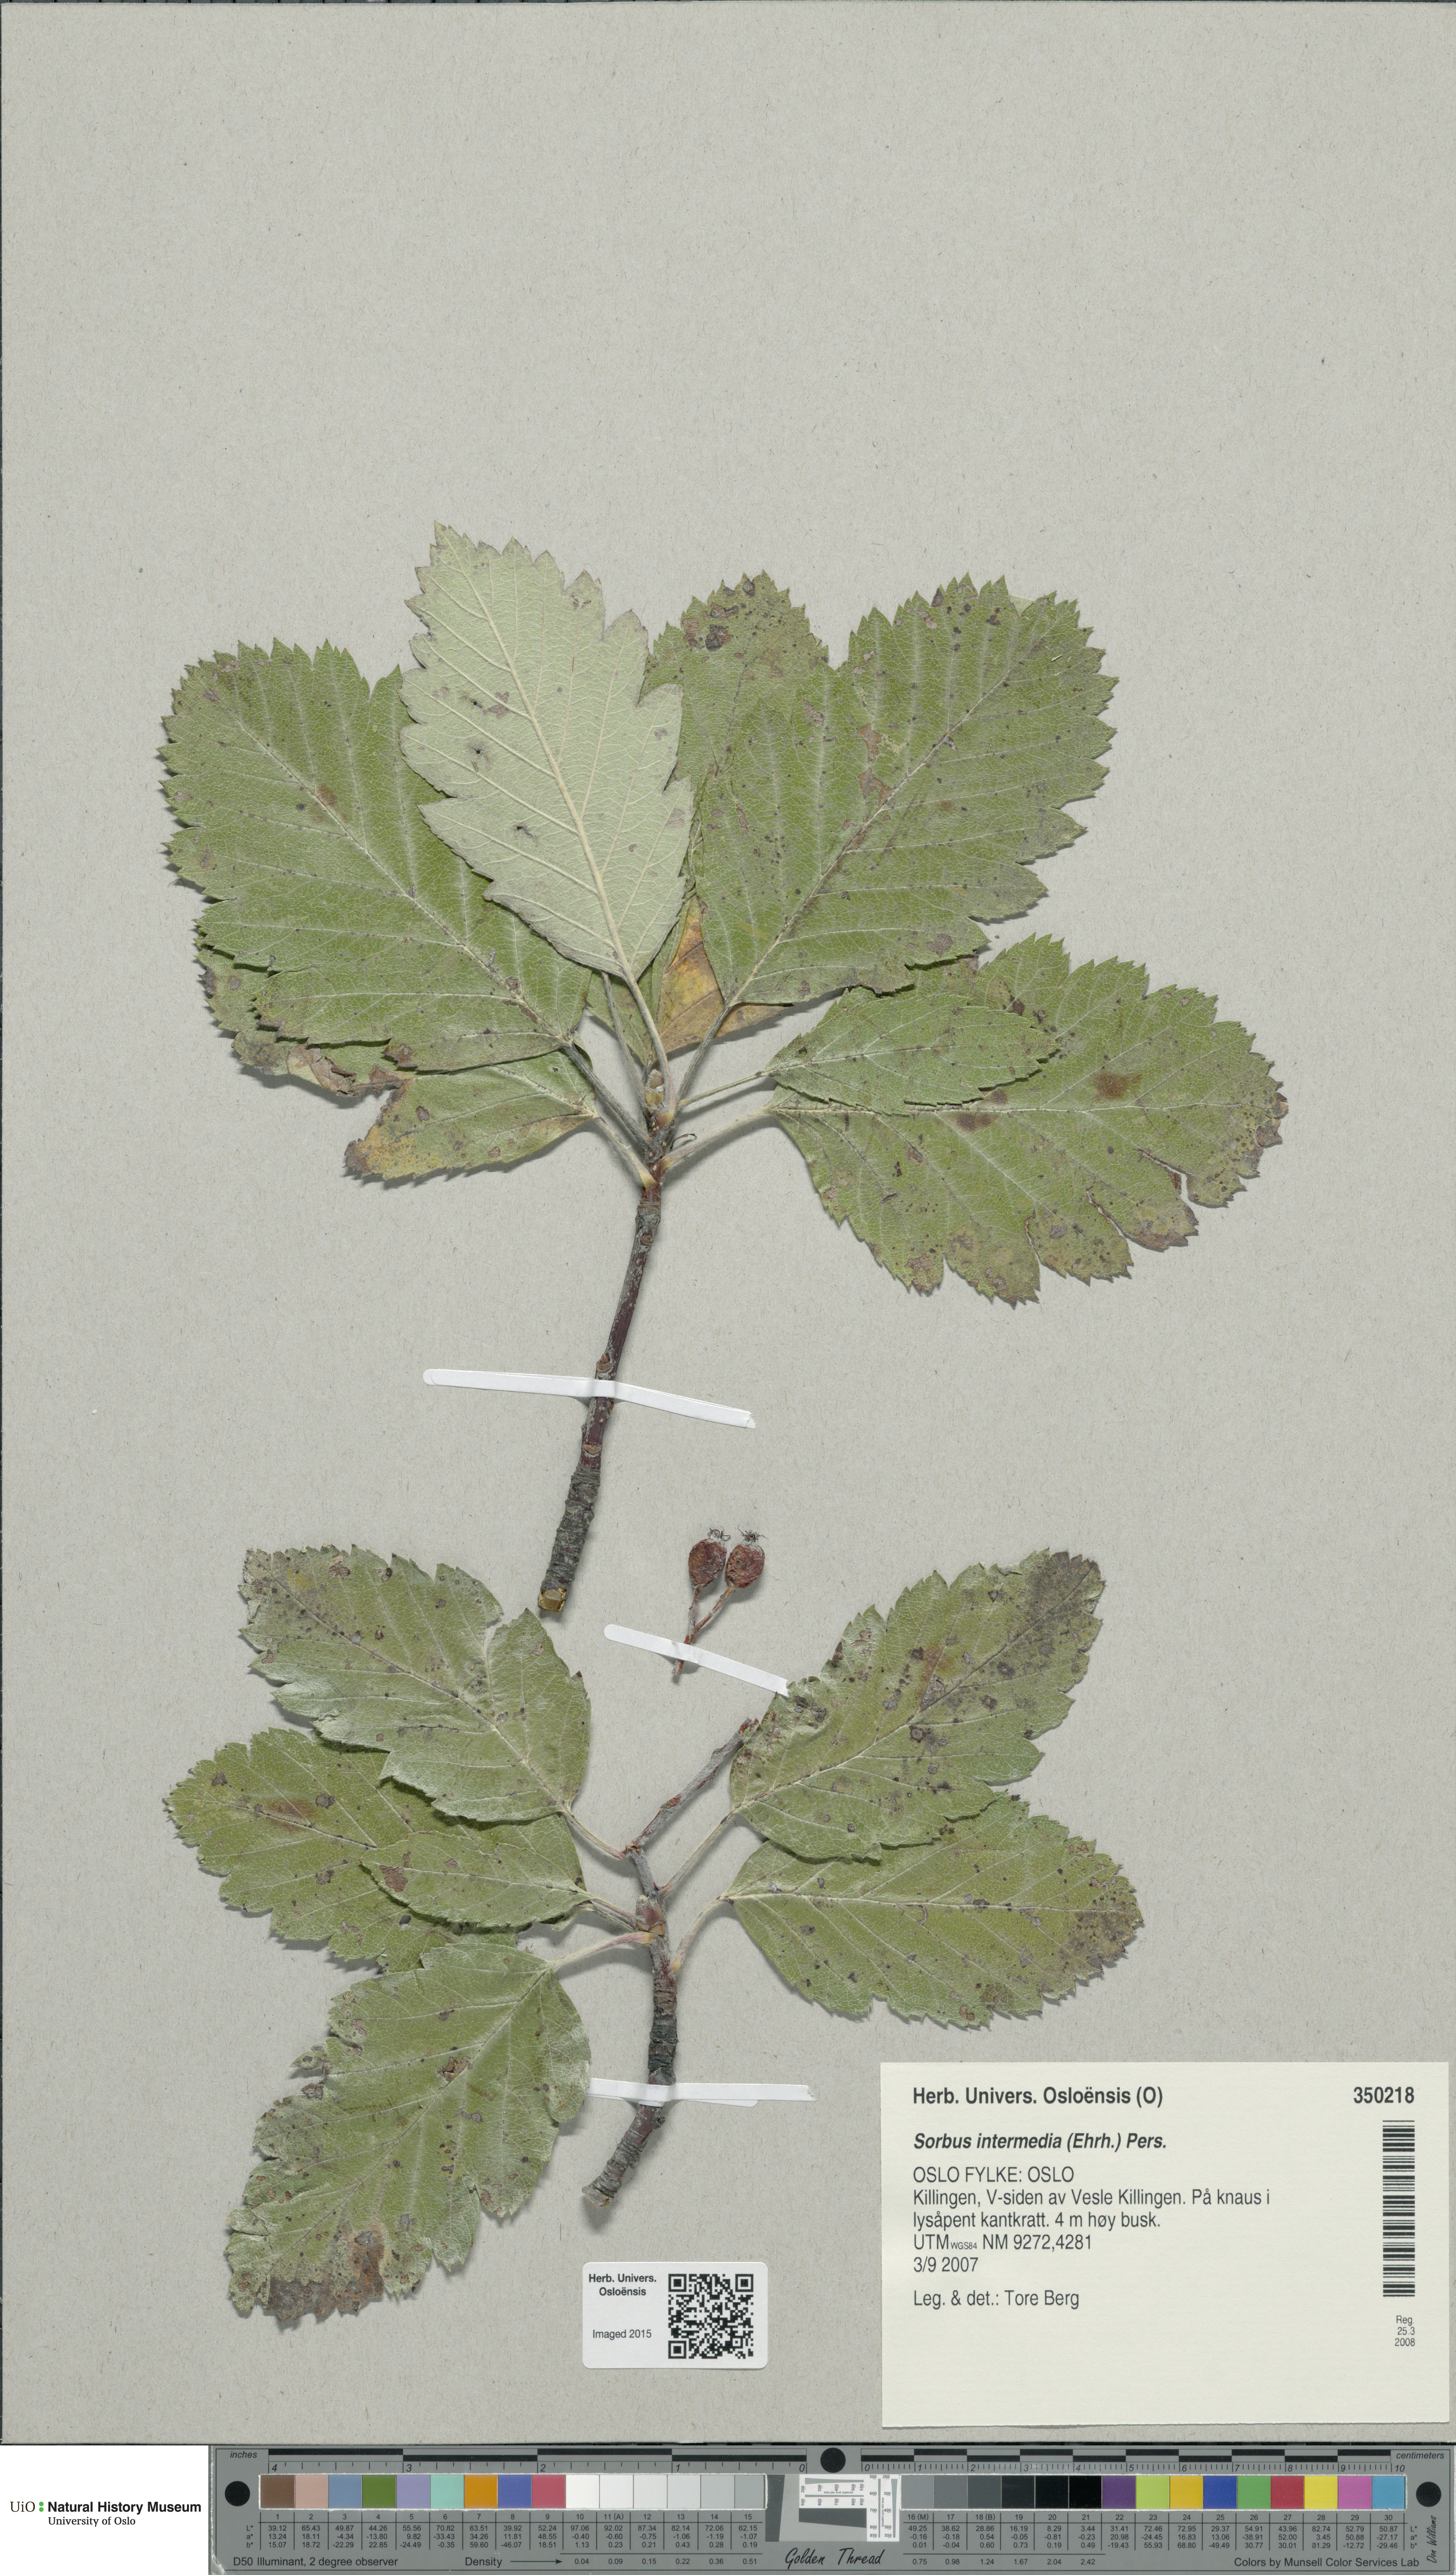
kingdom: Plantae
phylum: Tracheophyta
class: Magnoliopsida
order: Rosales
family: Rosaceae
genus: Scandosorbus
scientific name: Scandosorbus intermedia
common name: Swedish whitebeam
